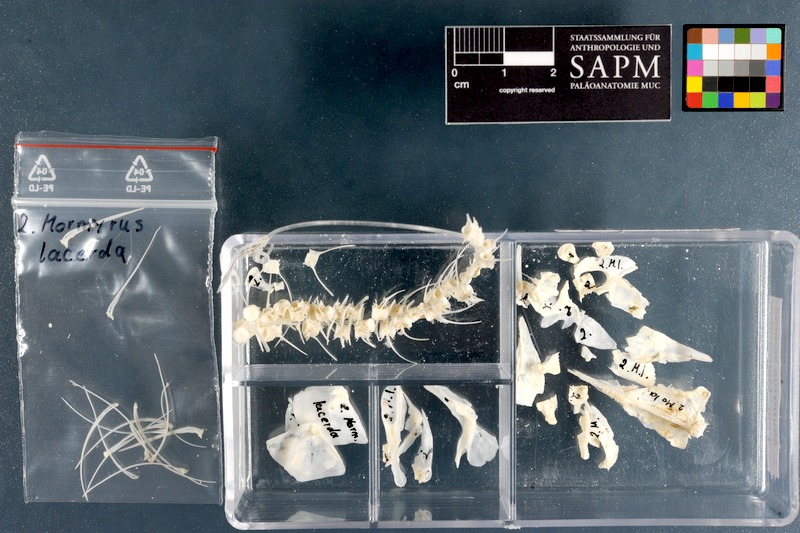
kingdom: Animalia
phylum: Chordata
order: Osteoglossiformes
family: Mormyridae
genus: Mormyrus
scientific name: Mormyrus lacerda
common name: Western bottlenose
